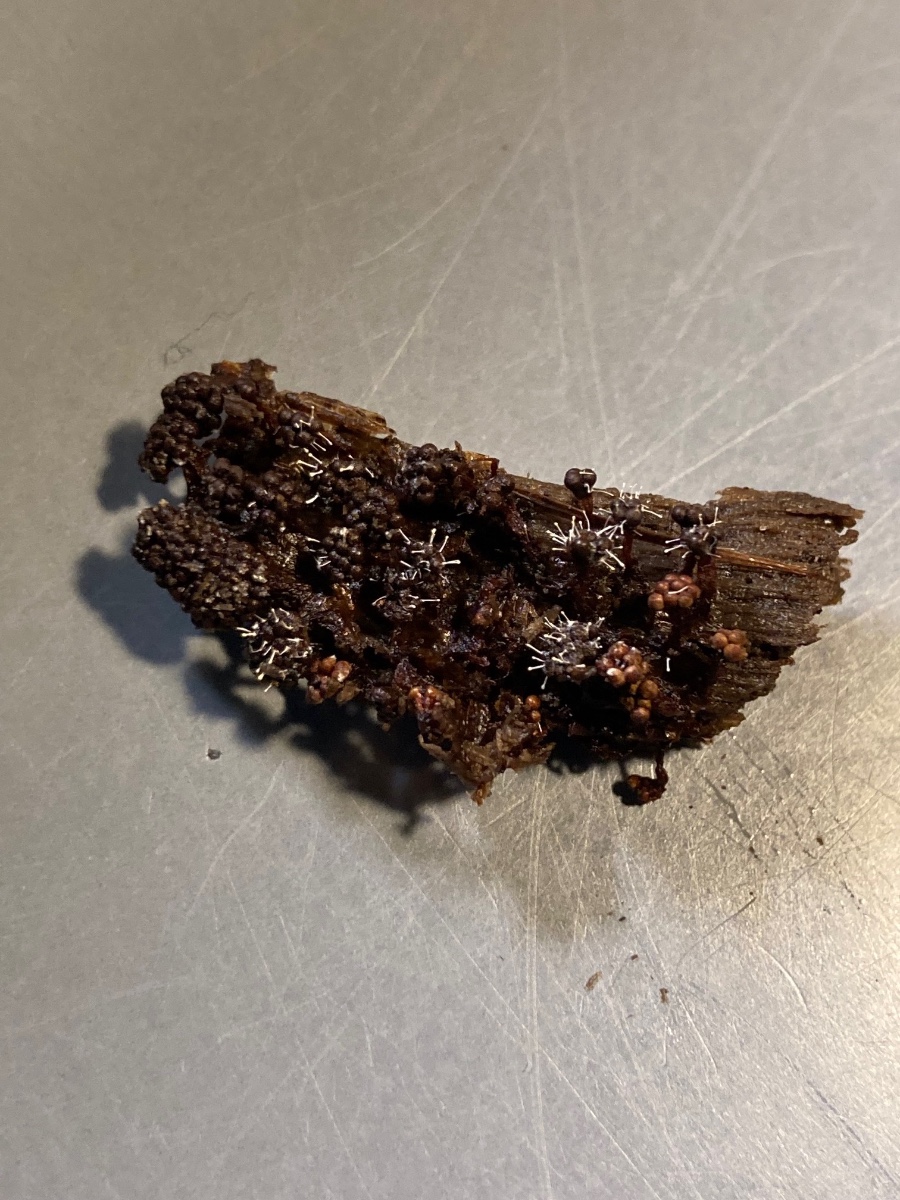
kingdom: Fungi
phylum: Ascomycota
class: Sordariomycetes
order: Hypocreales
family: Ophiocordycipitaceae
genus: Polycephalomyces
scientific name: Polycephalomyces tomentosus
